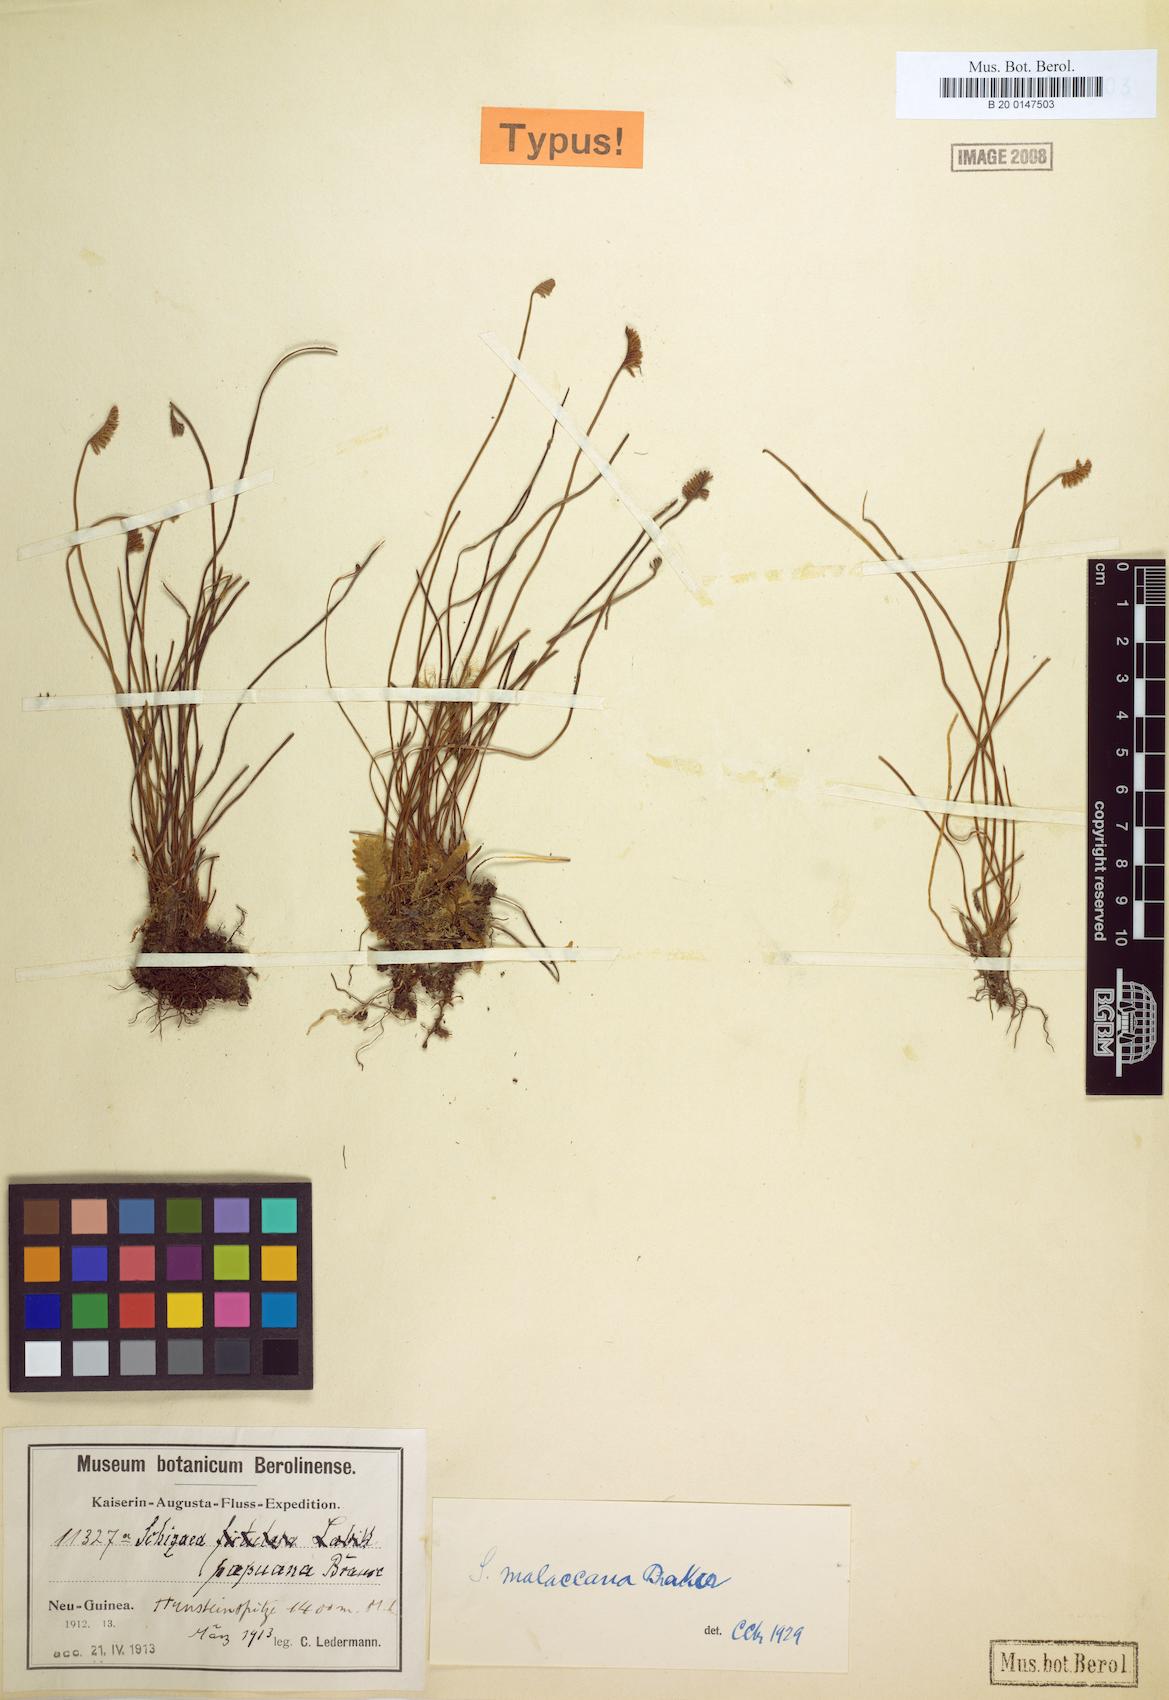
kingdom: Plantae
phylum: Tracheophyta
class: Polypodiopsida
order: Schizaeales
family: Schizaeaceae
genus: Microschizaea
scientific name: Microschizaea malaccana
